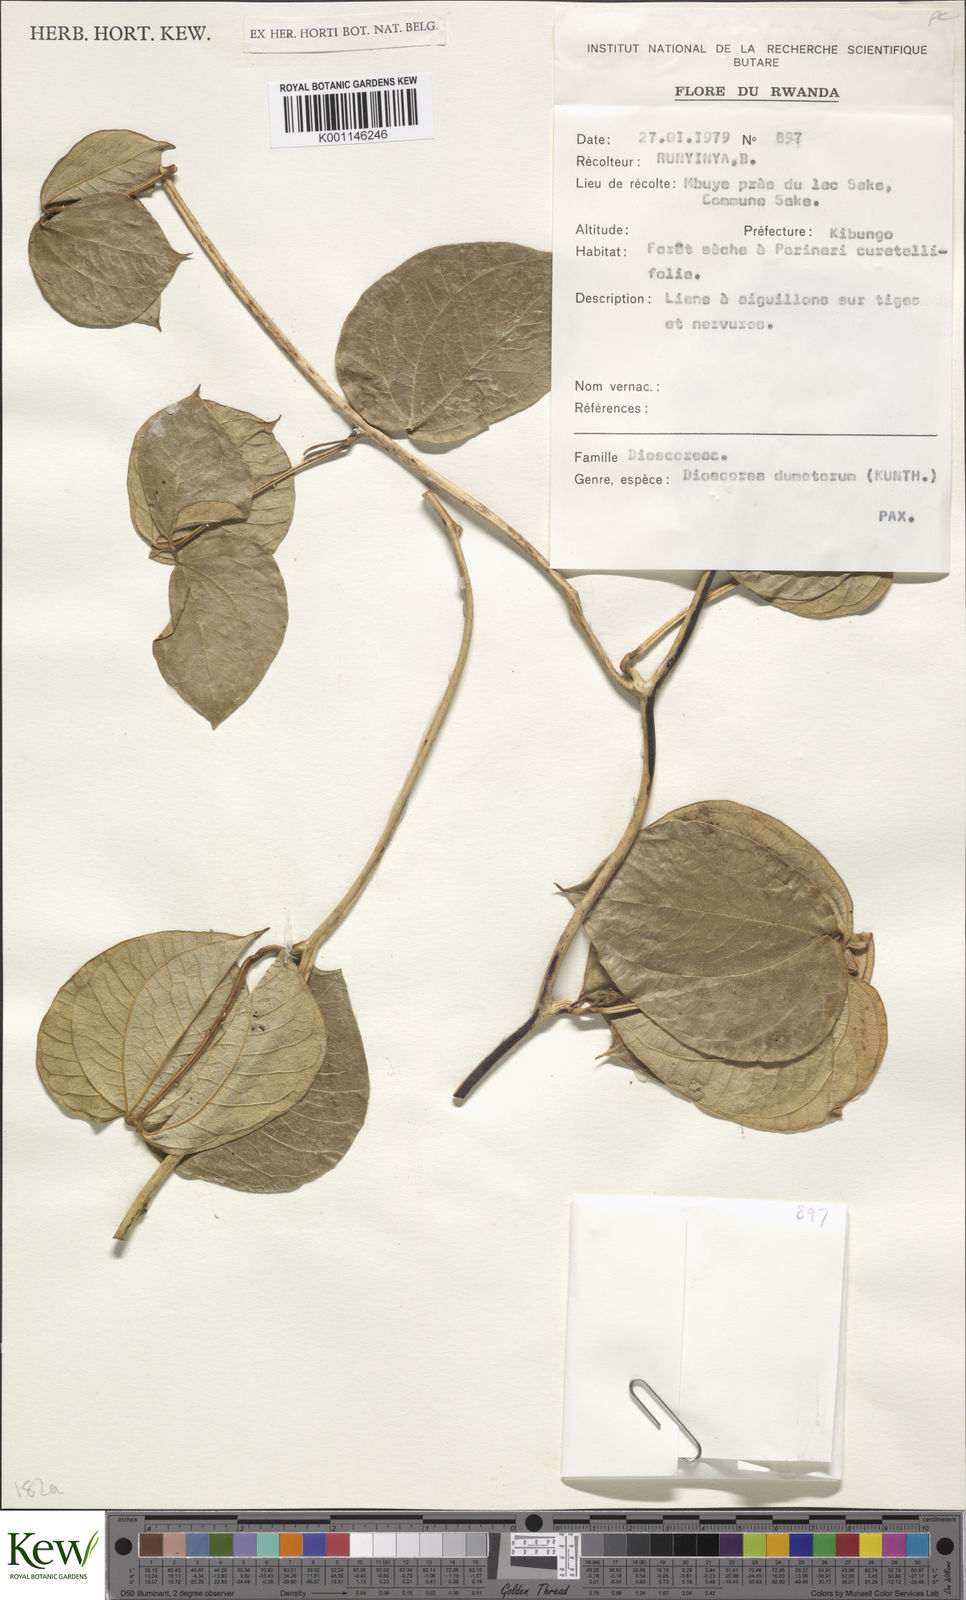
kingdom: Plantae
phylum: Tracheophyta
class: Liliopsida
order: Dioscoreales
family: Dioscoreaceae
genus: Dioscorea
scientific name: Dioscorea dumetorum
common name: African bitter yam
